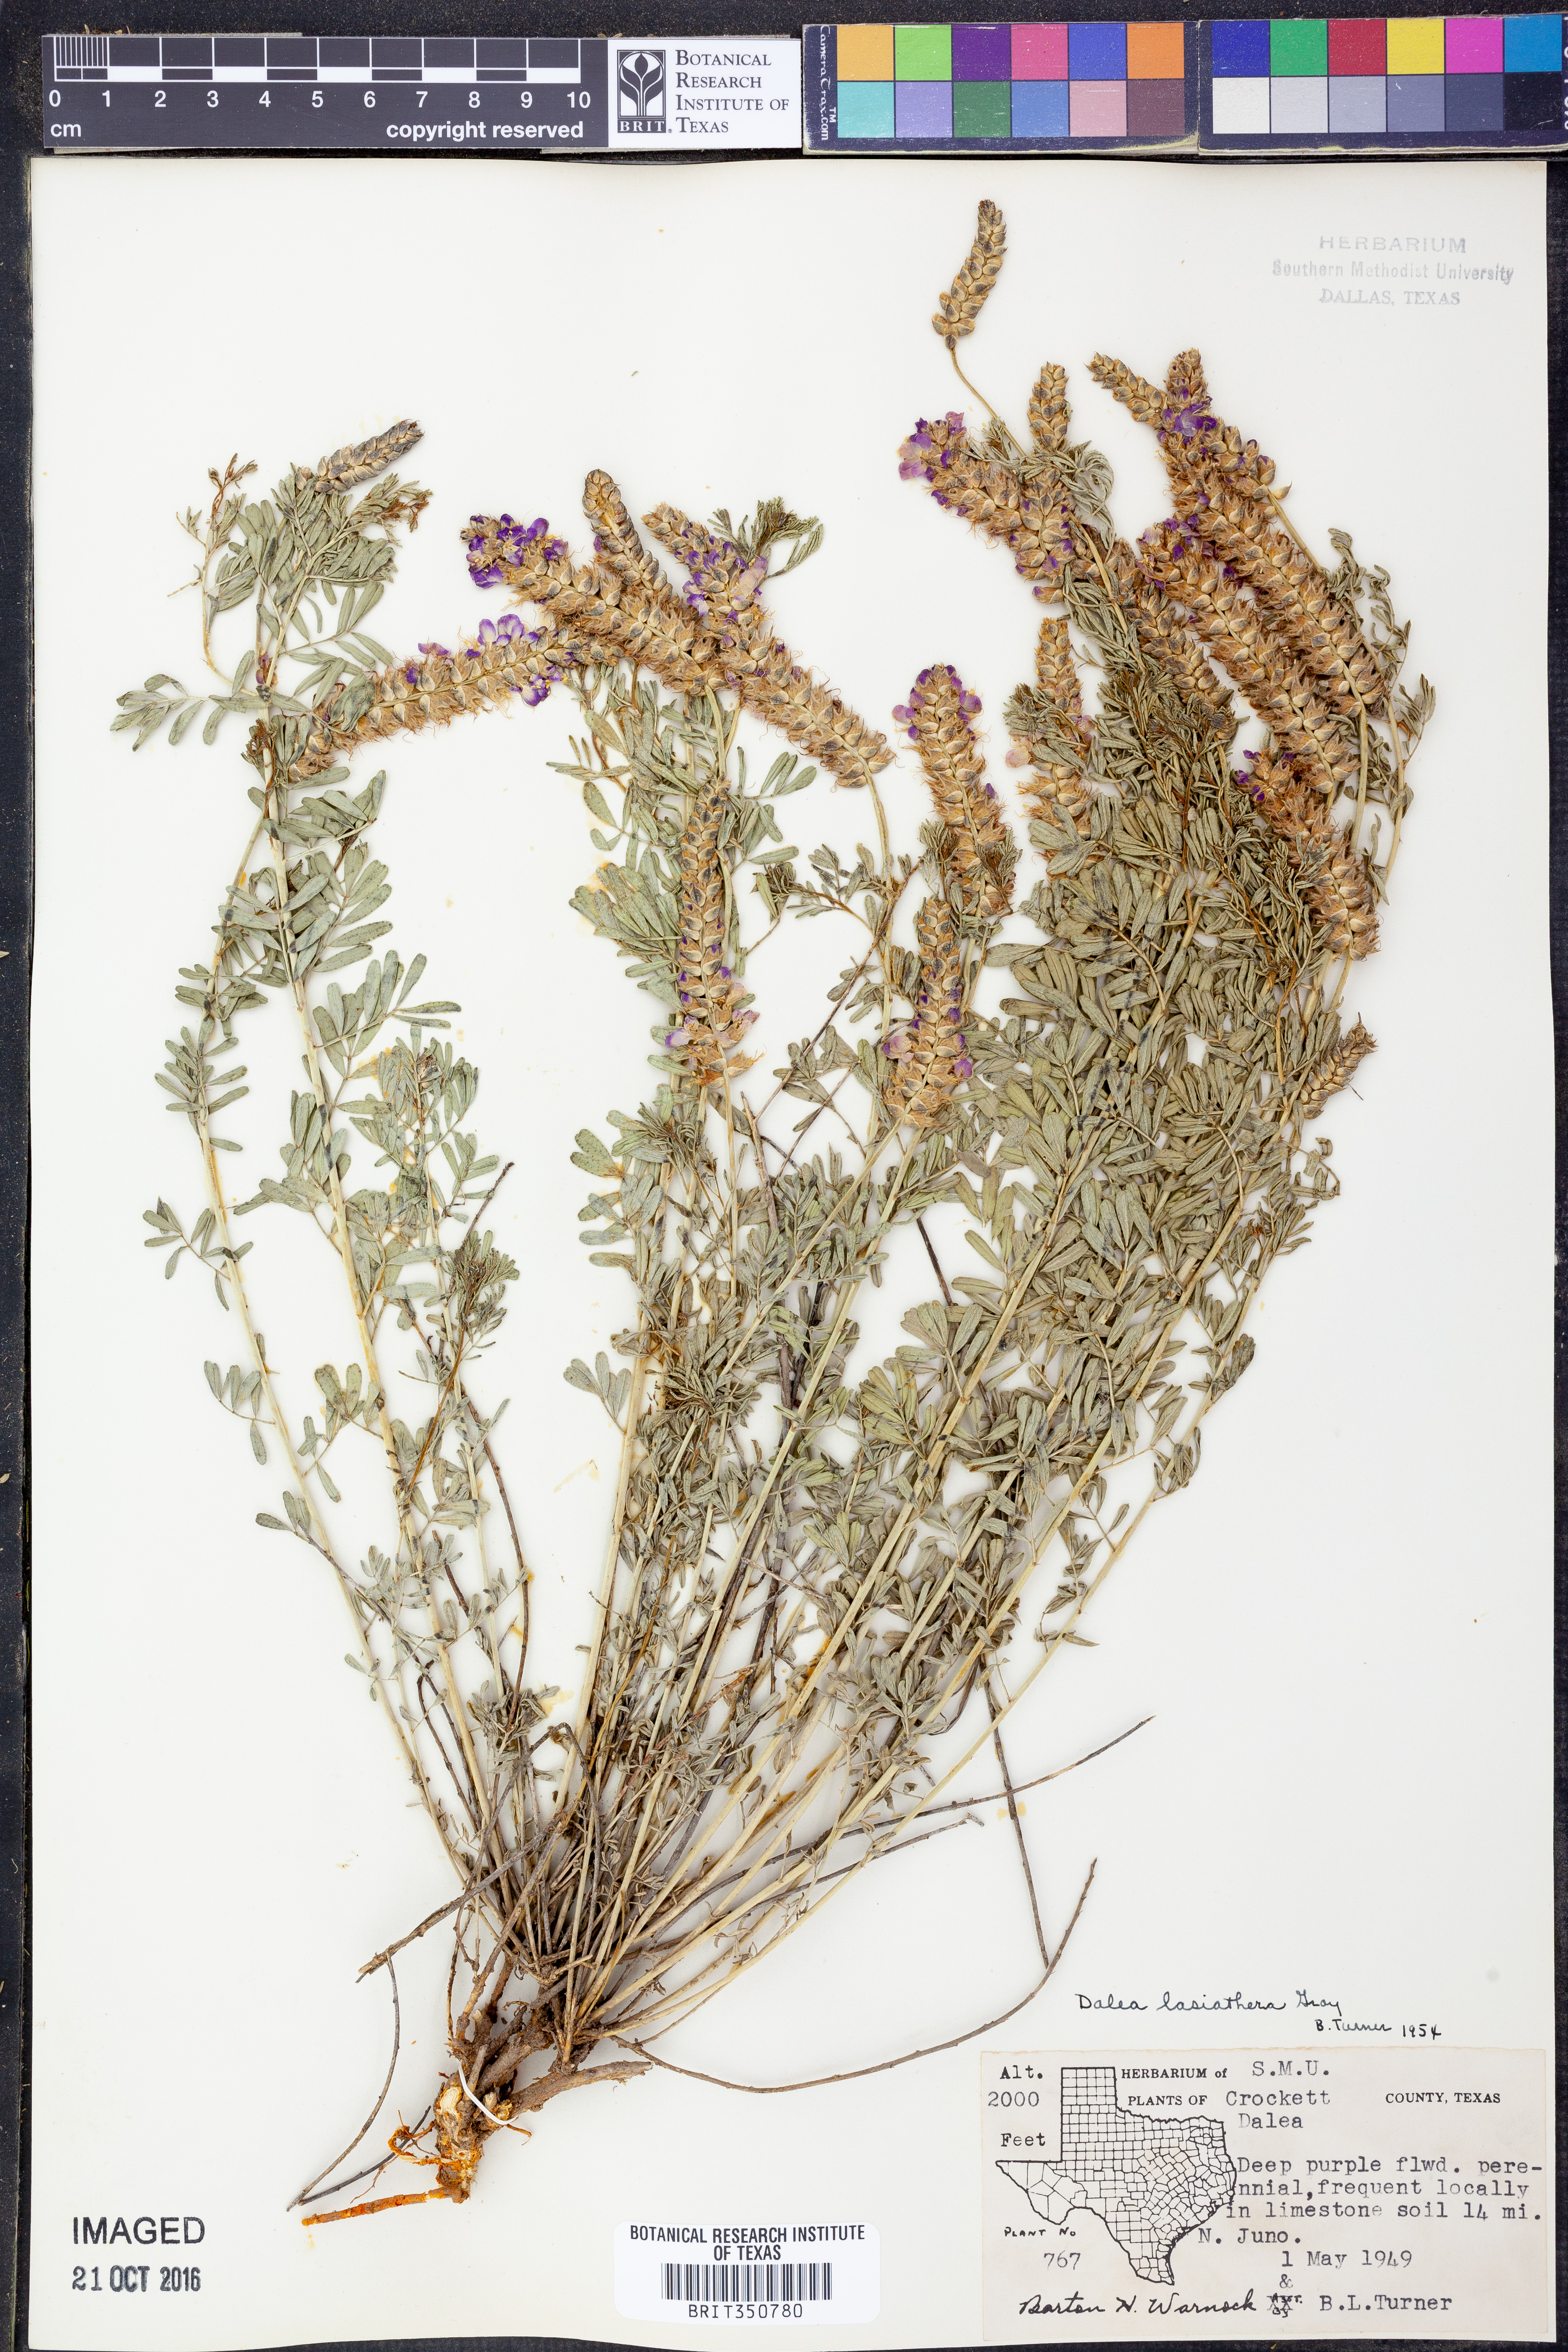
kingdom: Plantae
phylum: Tracheophyta
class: Magnoliopsida
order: Fabales
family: Fabaceae
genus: Dalea
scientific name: Dalea lasiathera
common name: Purple prairie-clover
